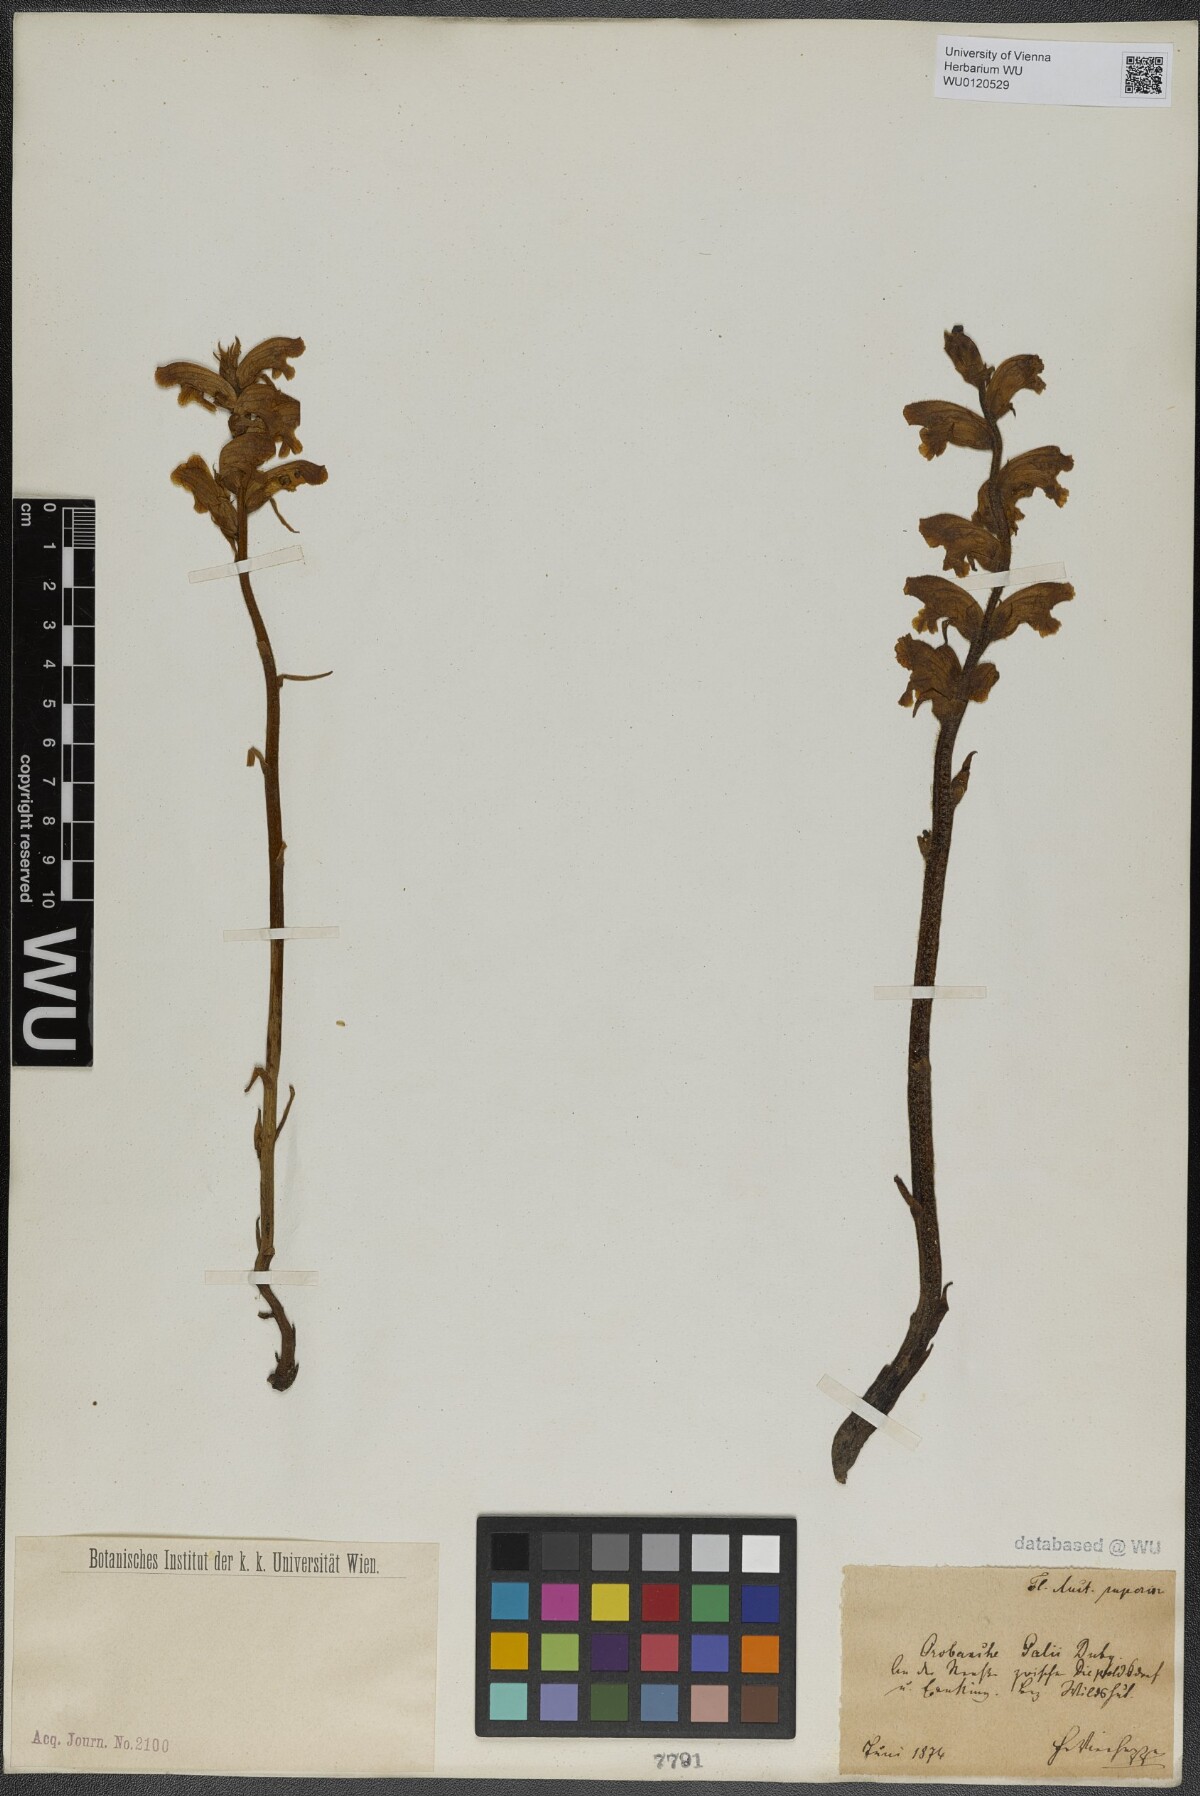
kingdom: Plantae
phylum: Tracheophyta
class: Magnoliopsida
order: Lamiales
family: Orobanchaceae
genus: Orobanche
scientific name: Orobanche caryophyllacea
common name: Bedstraw broomrape
